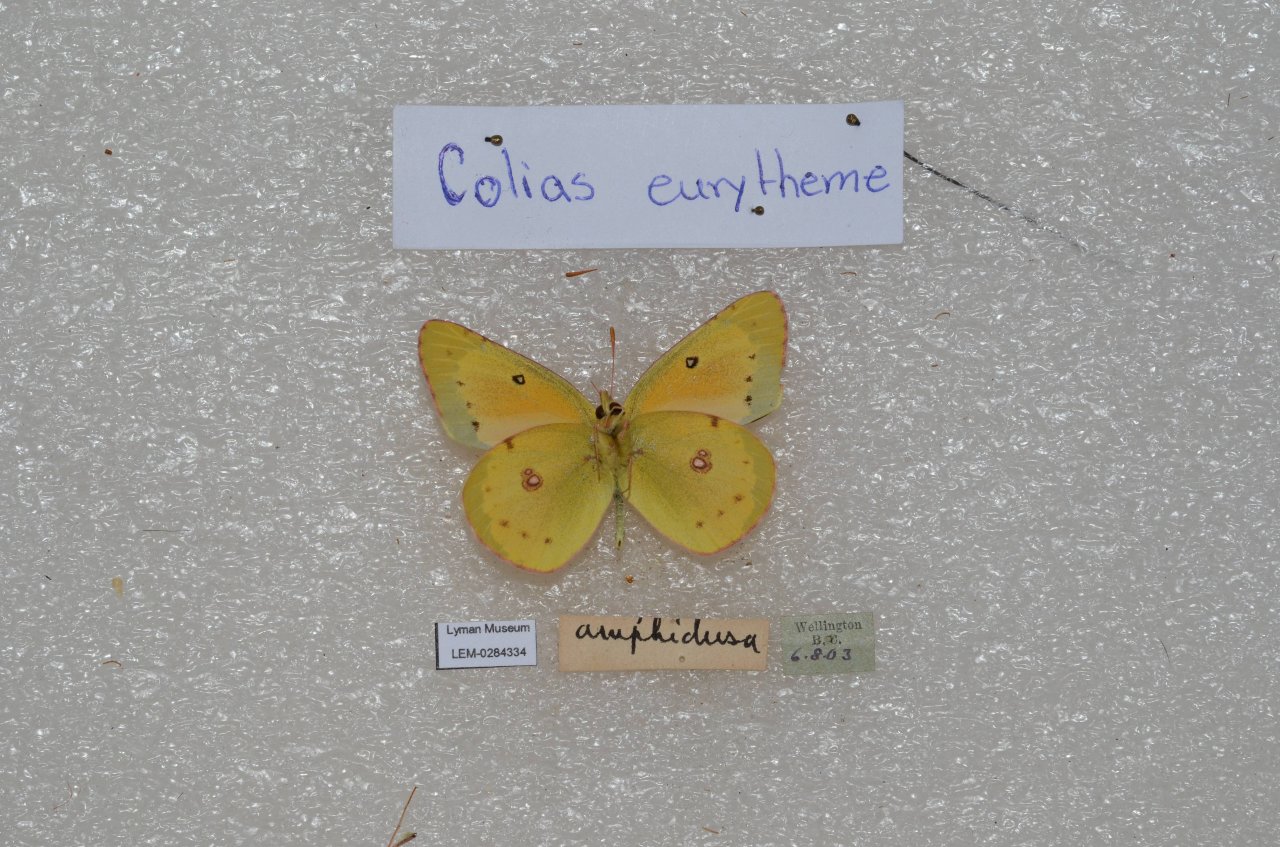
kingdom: Animalia
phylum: Arthropoda
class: Insecta
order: Lepidoptera
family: Pieridae
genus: Colias
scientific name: Colias eurytheme
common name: Orange Sulphur
